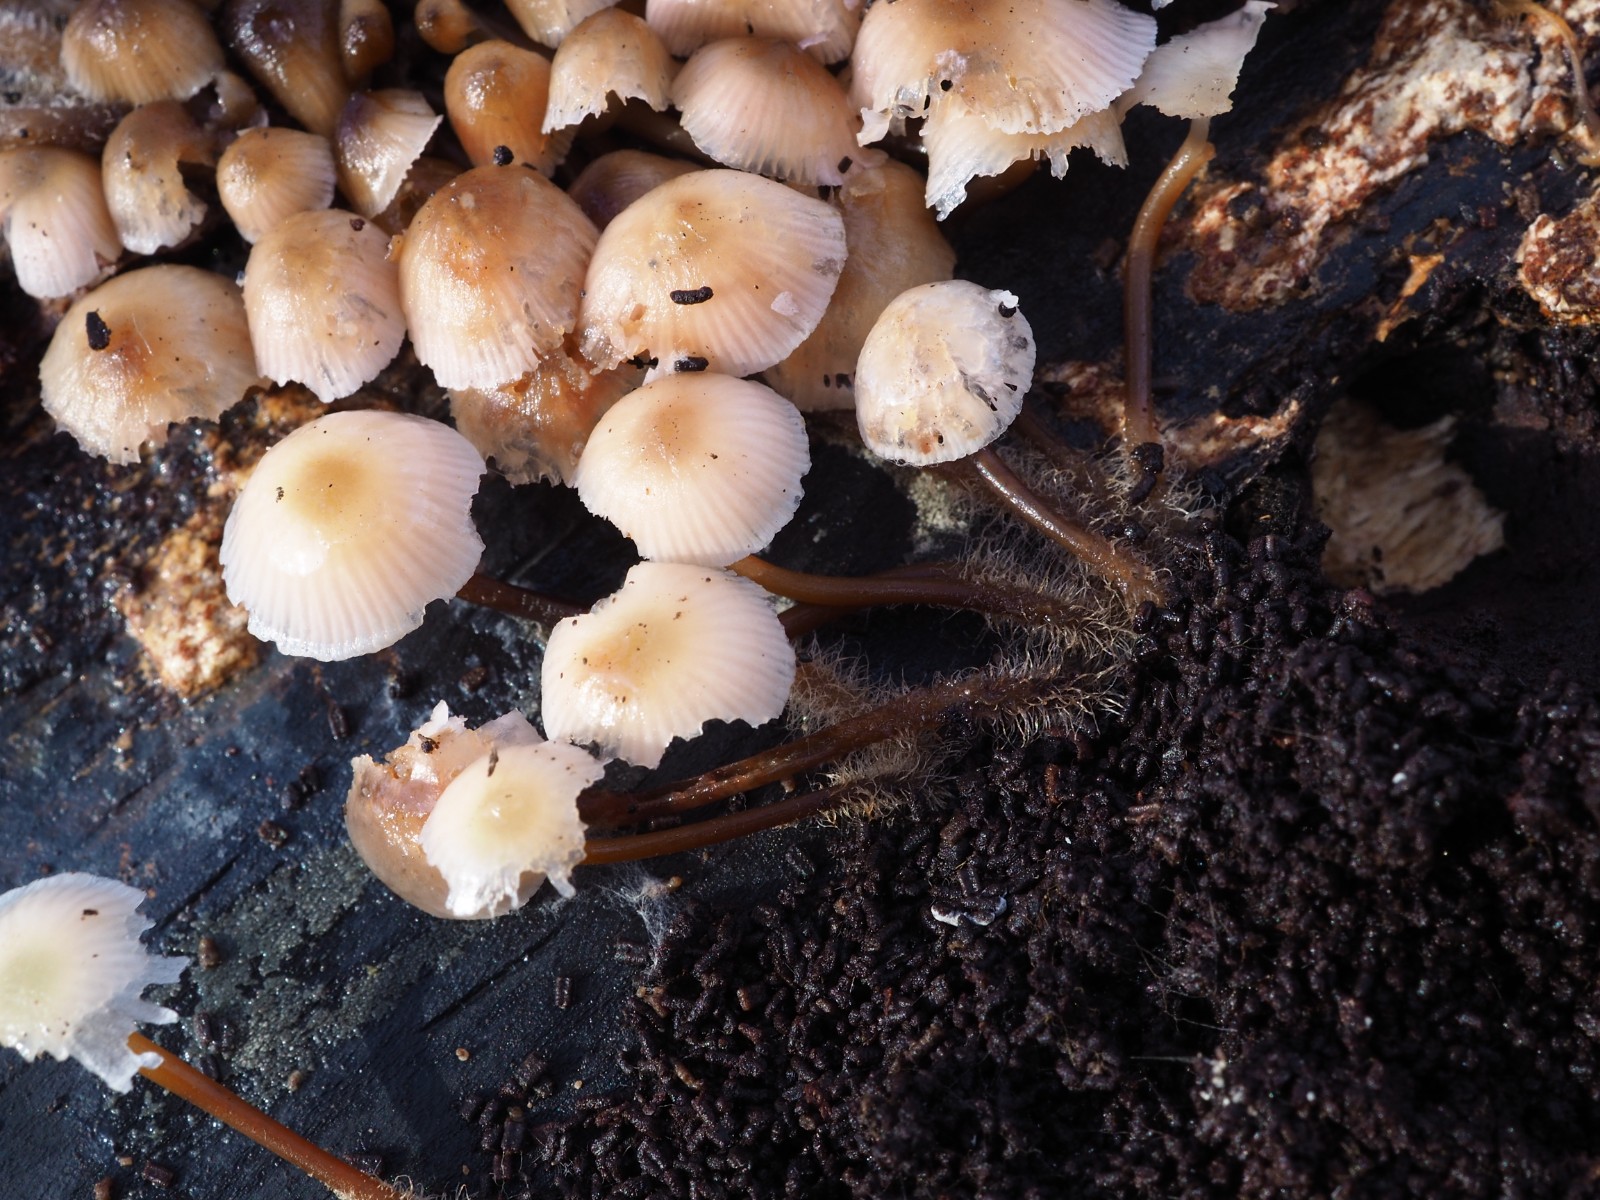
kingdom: Fungi
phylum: Basidiomycota
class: Agaricomycetes
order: Agaricales
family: Mycenaceae
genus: Mycena
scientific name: Mycena tintinnabulum
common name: vinter-huesvamp
